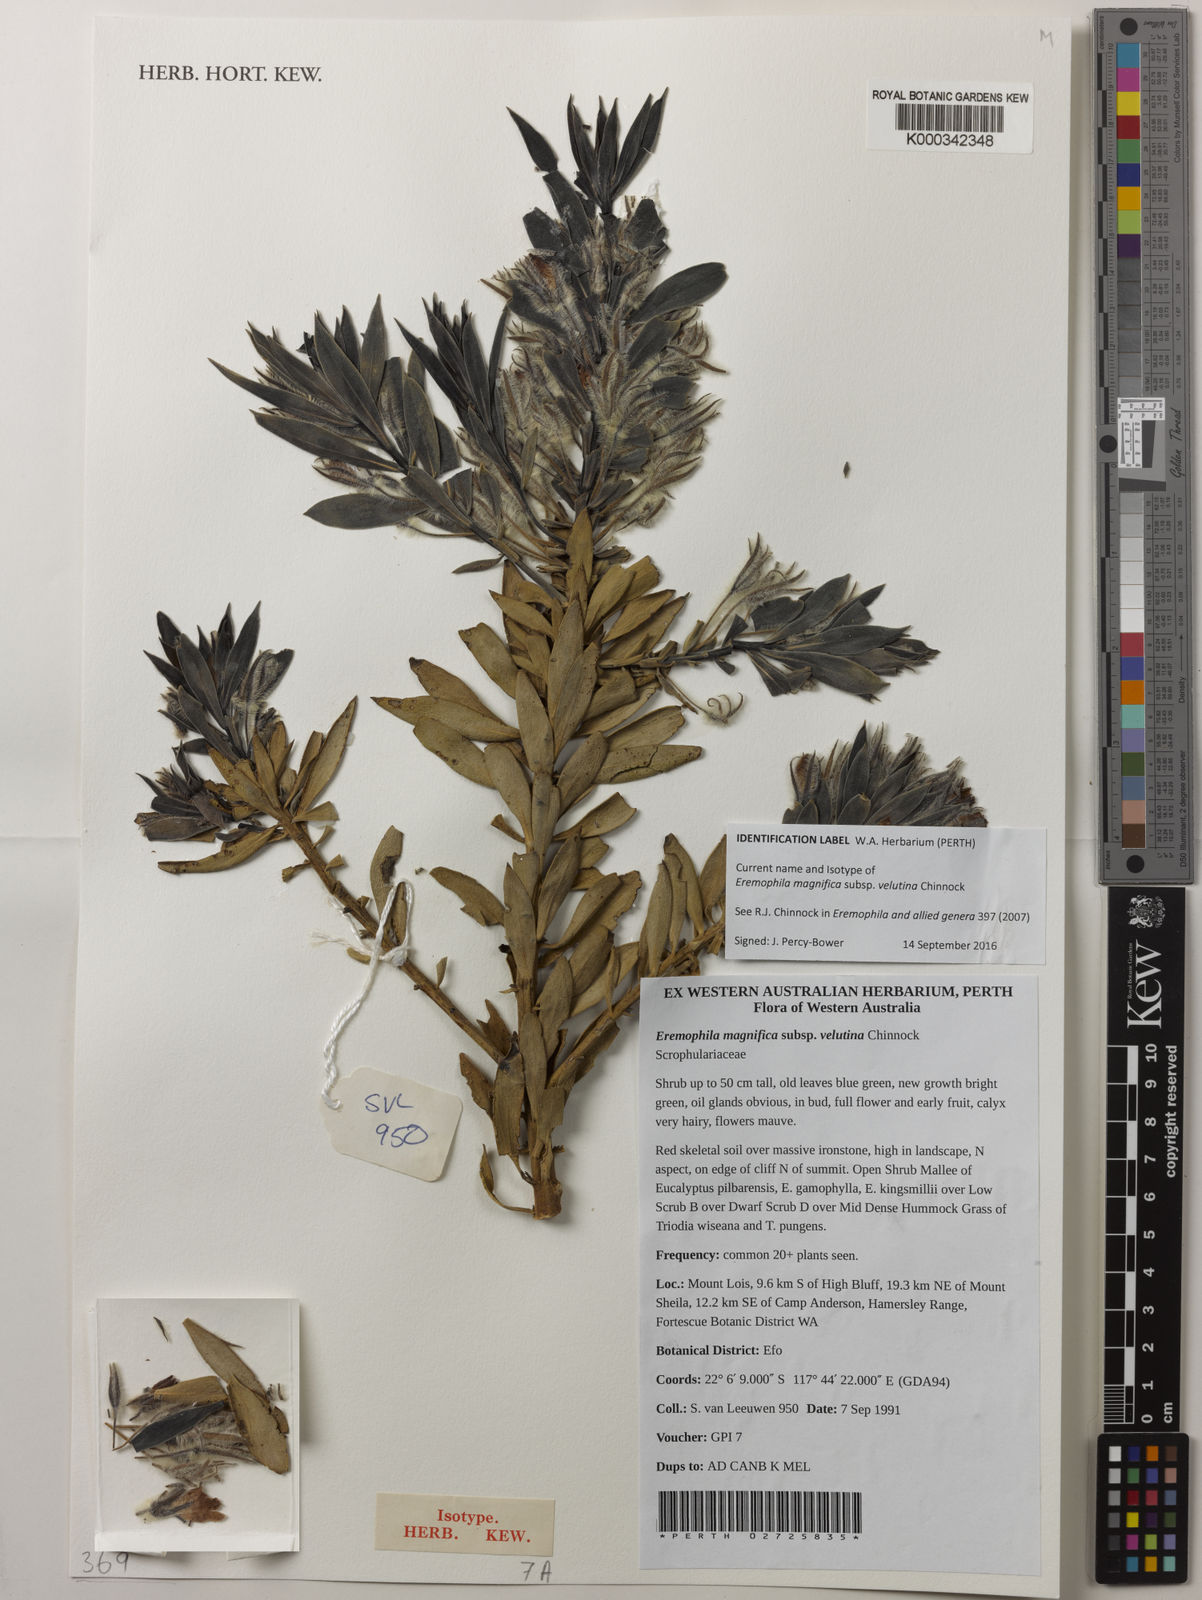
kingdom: Plantae
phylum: Tracheophyta
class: Magnoliopsida
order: Lamiales
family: Scrophulariaceae
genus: Eremophila
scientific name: Eremophila magnifica
